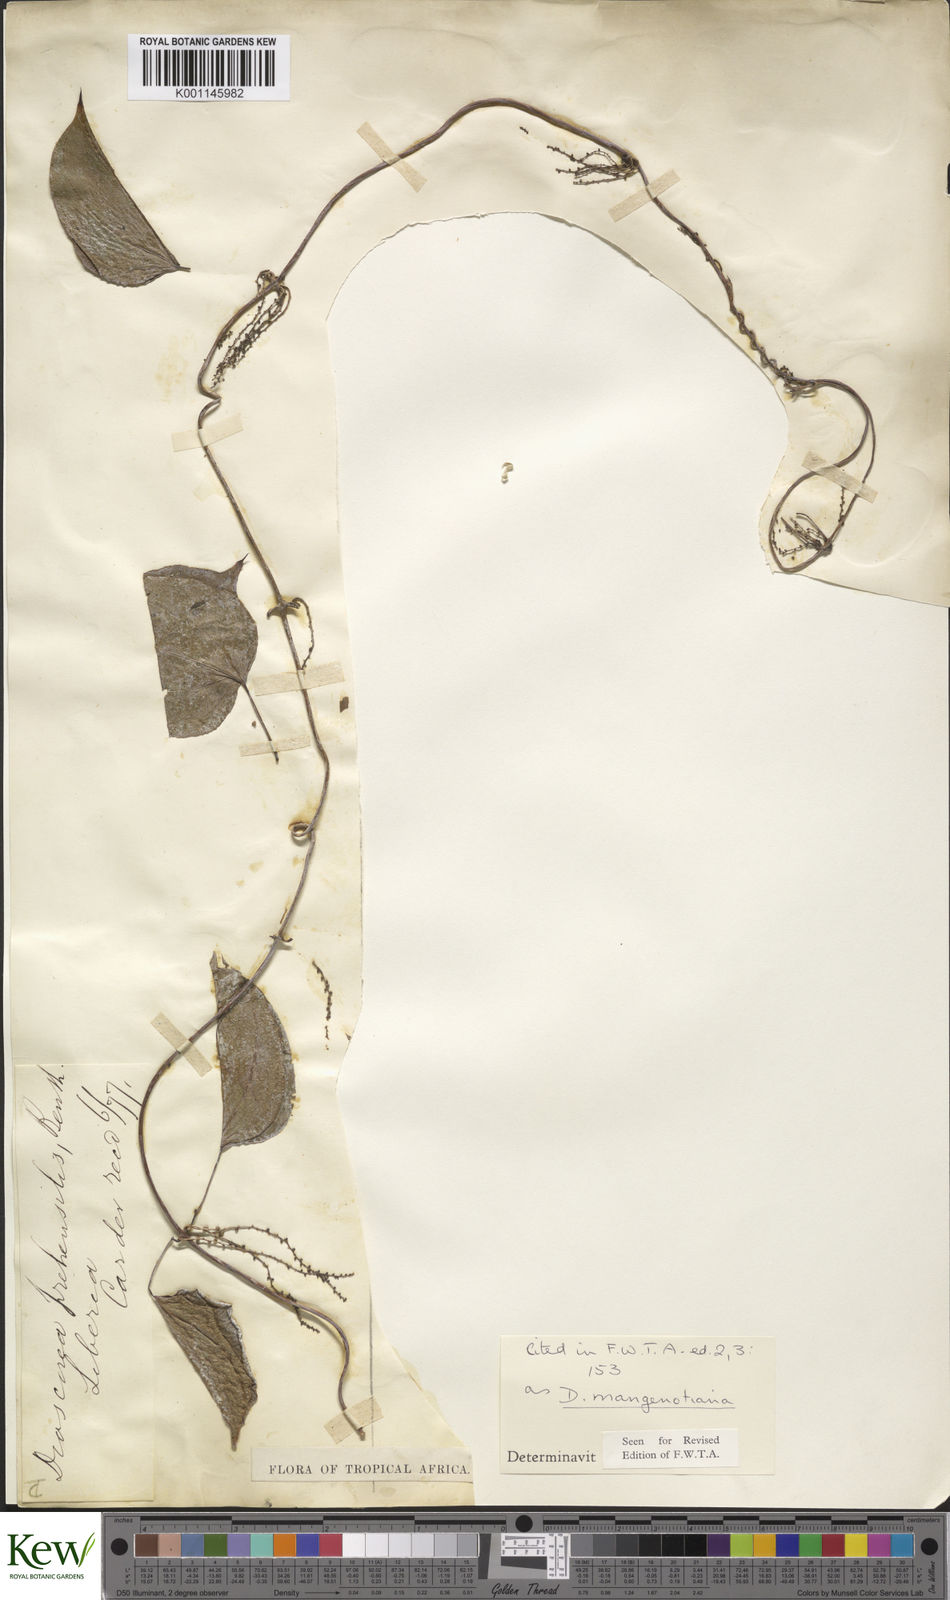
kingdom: Plantae
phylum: Tracheophyta
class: Liliopsida
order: Dioscoreales
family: Dioscoreaceae
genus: Dioscorea
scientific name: Dioscorea
